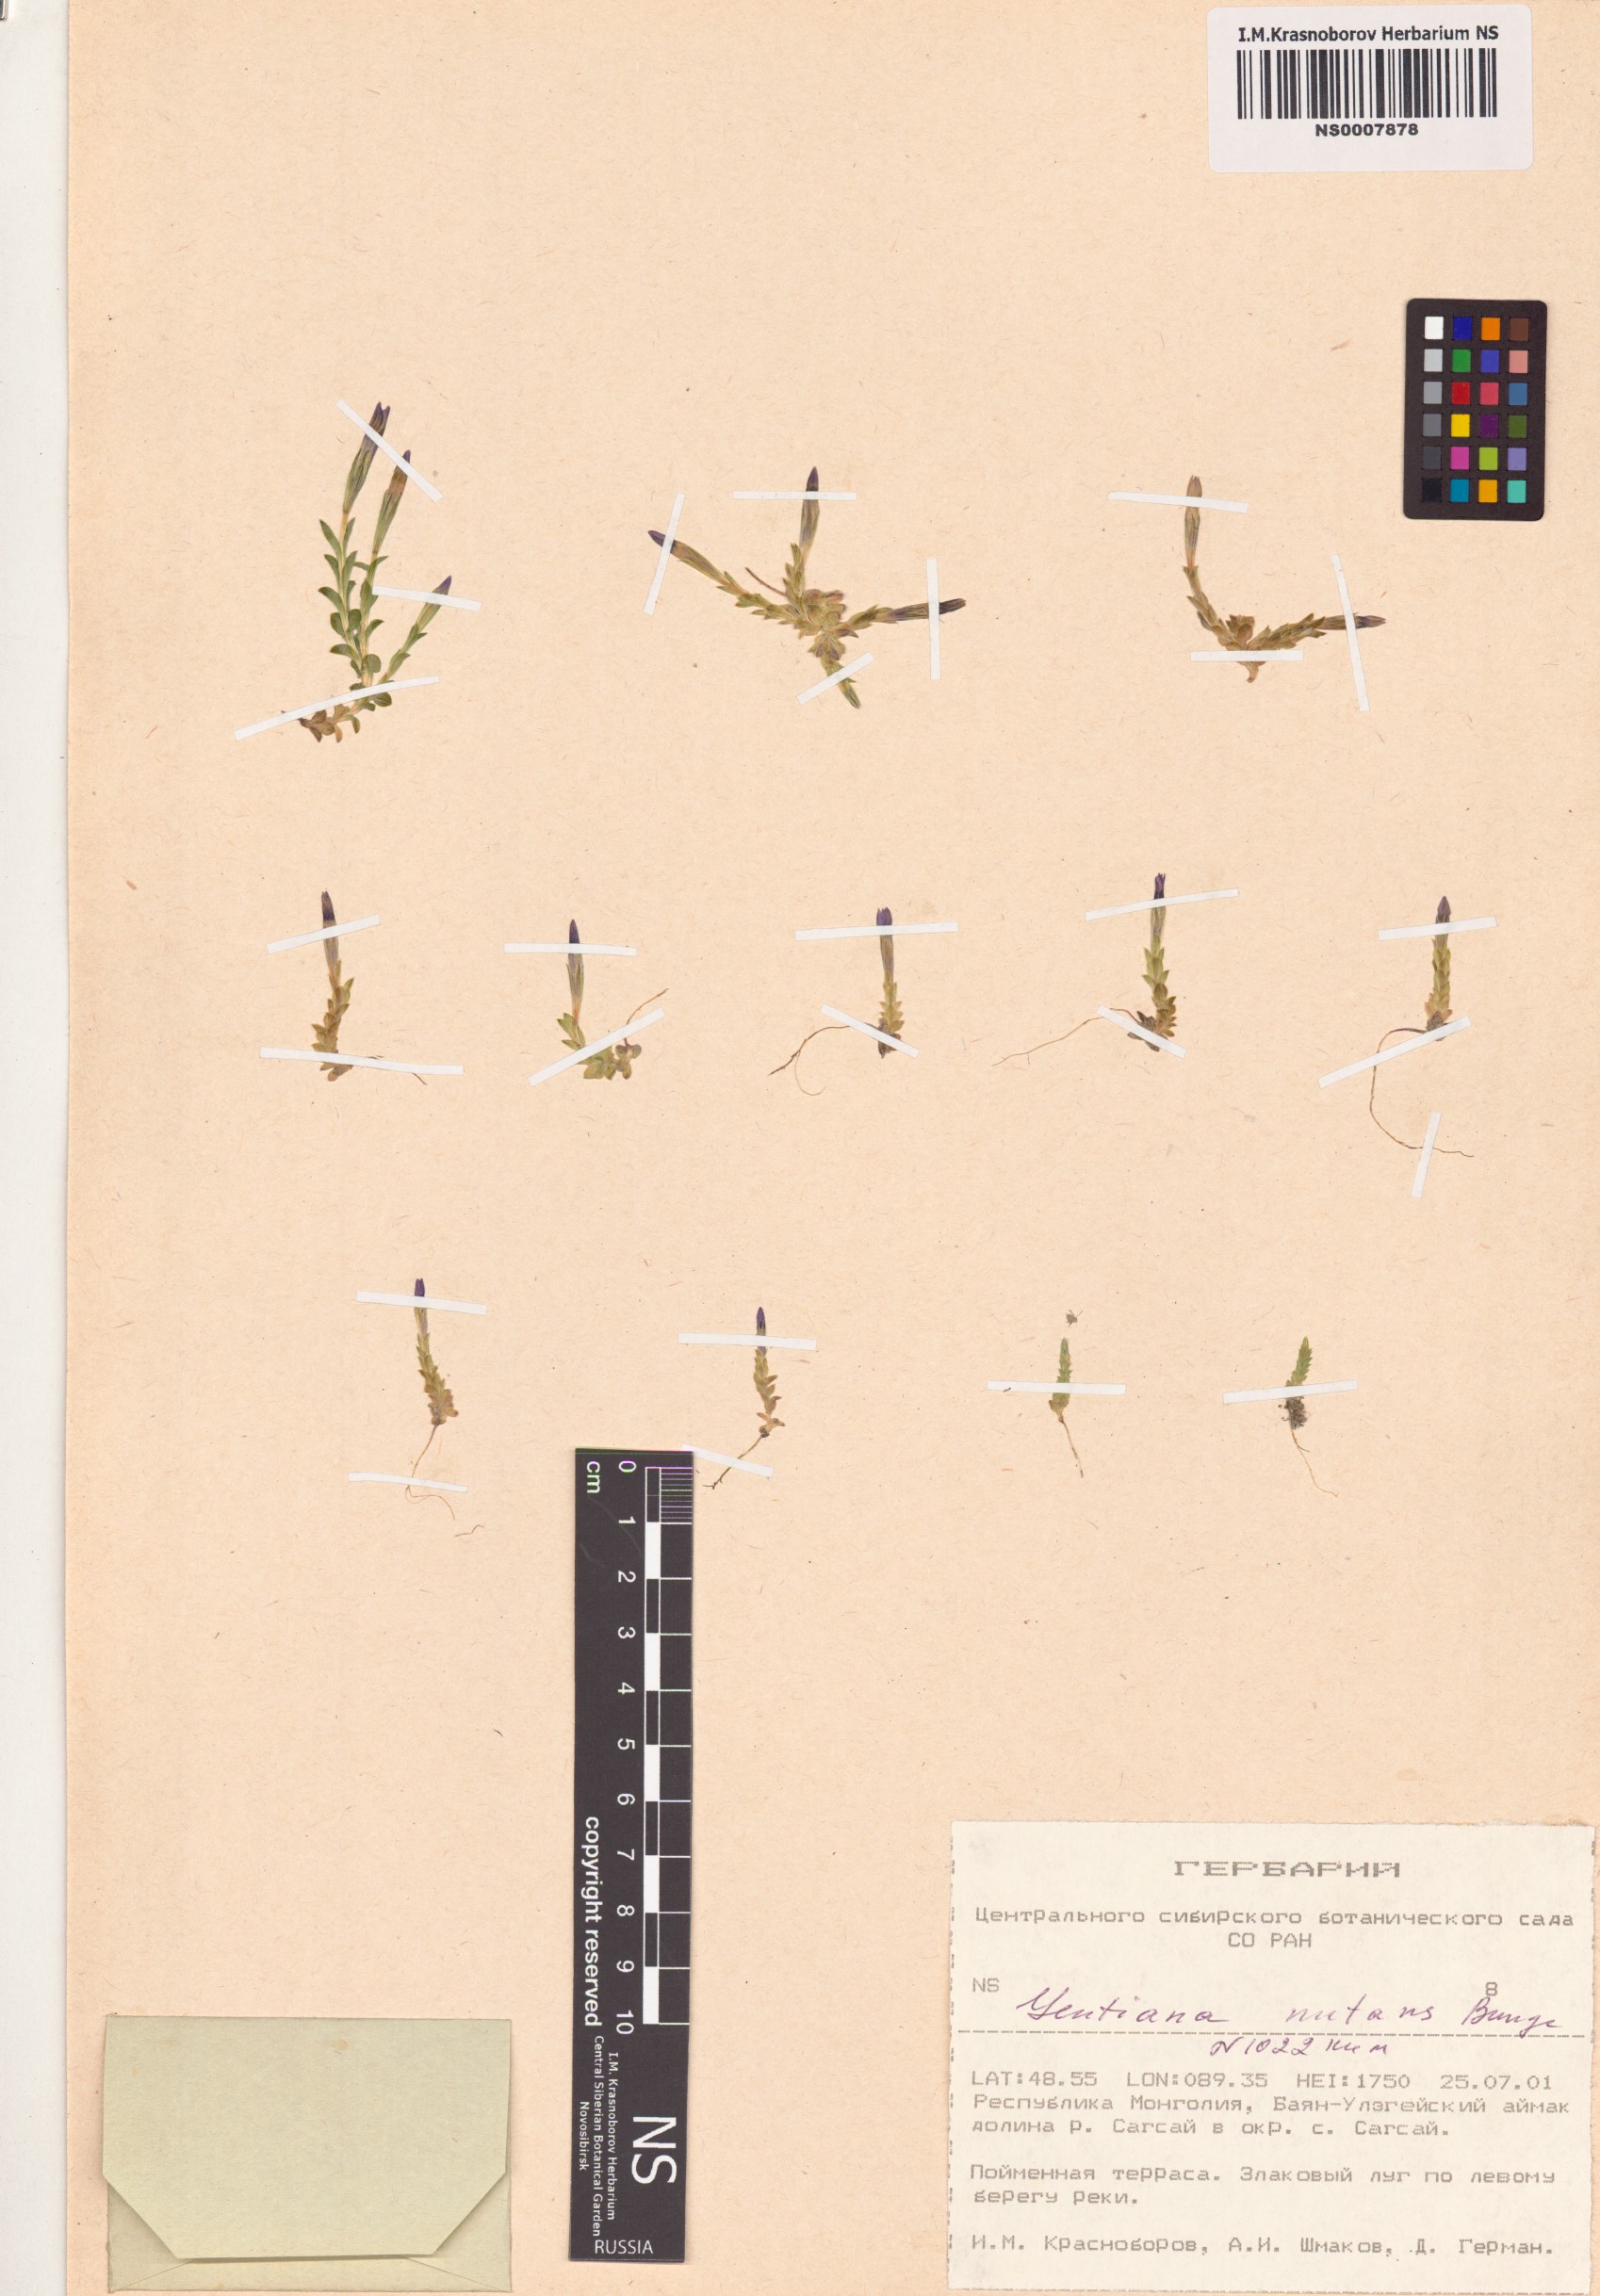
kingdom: Plantae
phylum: Tracheophyta
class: Magnoliopsida
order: Gentianales
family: Gentianaceae
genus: Gentiana
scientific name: Gentiana prostrata
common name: Moss gentian
